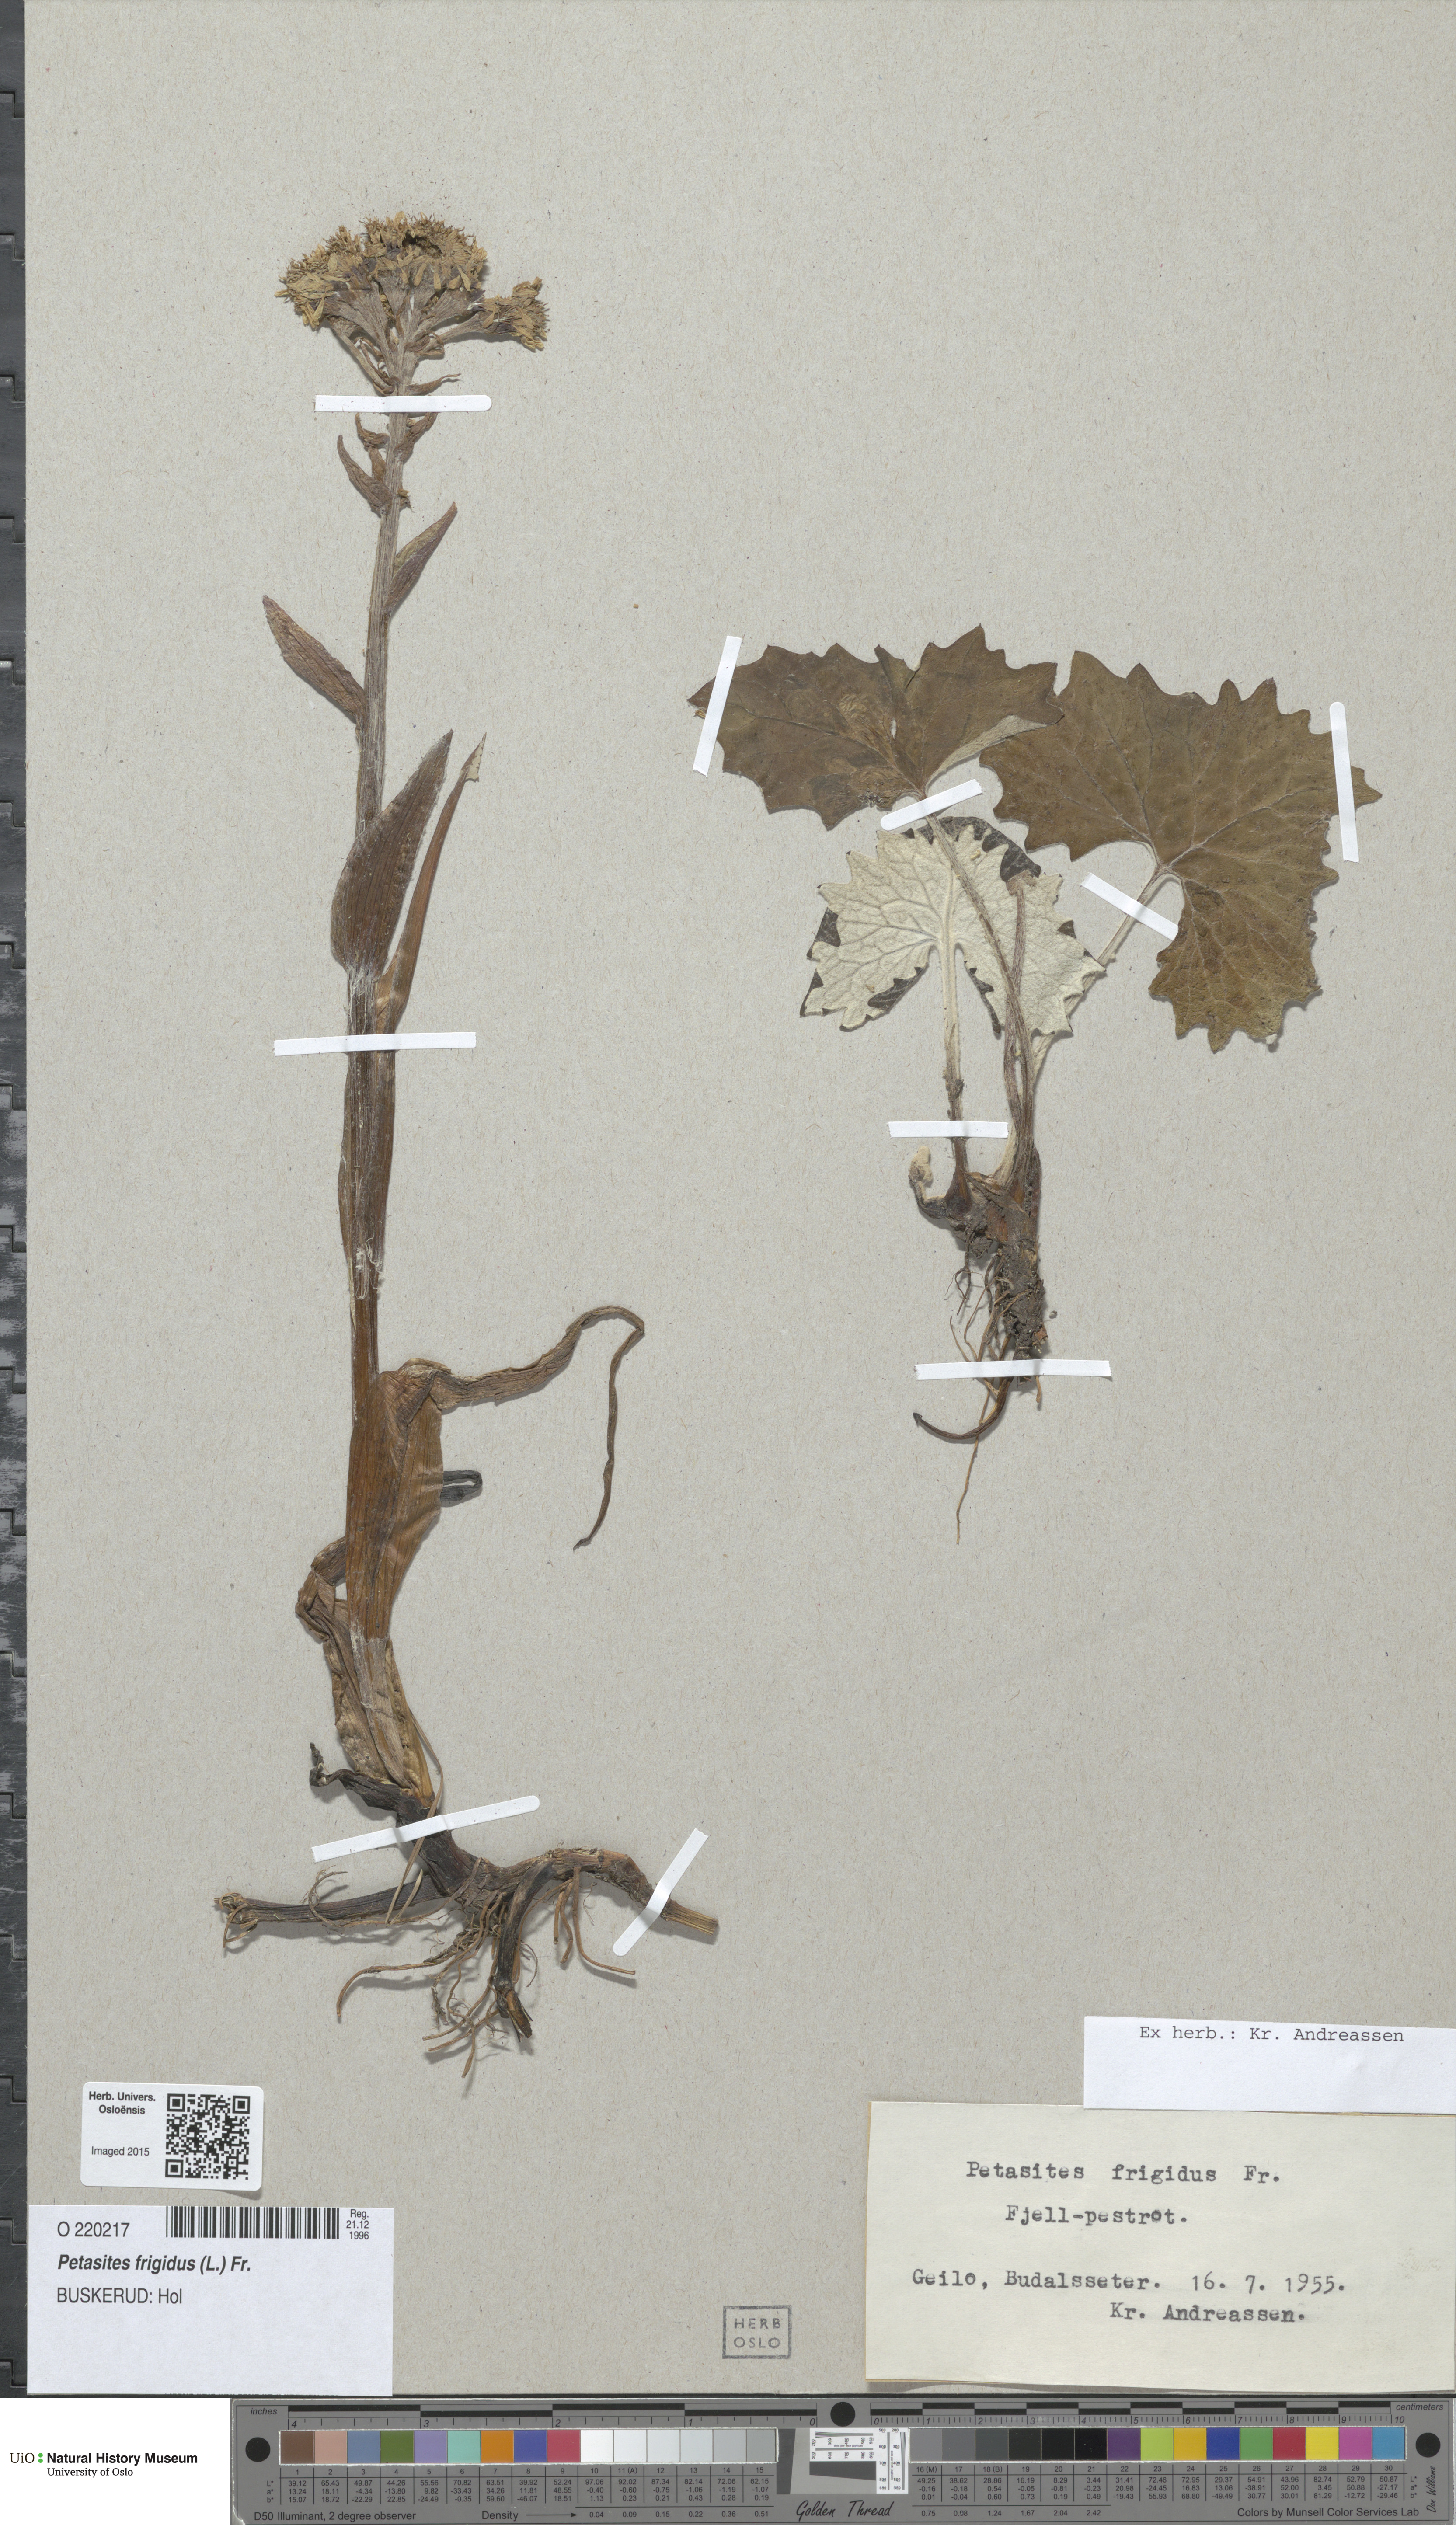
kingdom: Plantae
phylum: Tracheophyta
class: Magnoliopsida
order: Asterales
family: Asteraceae
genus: Petasites
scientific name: Petasites frigidus
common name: Arctic butterbur
